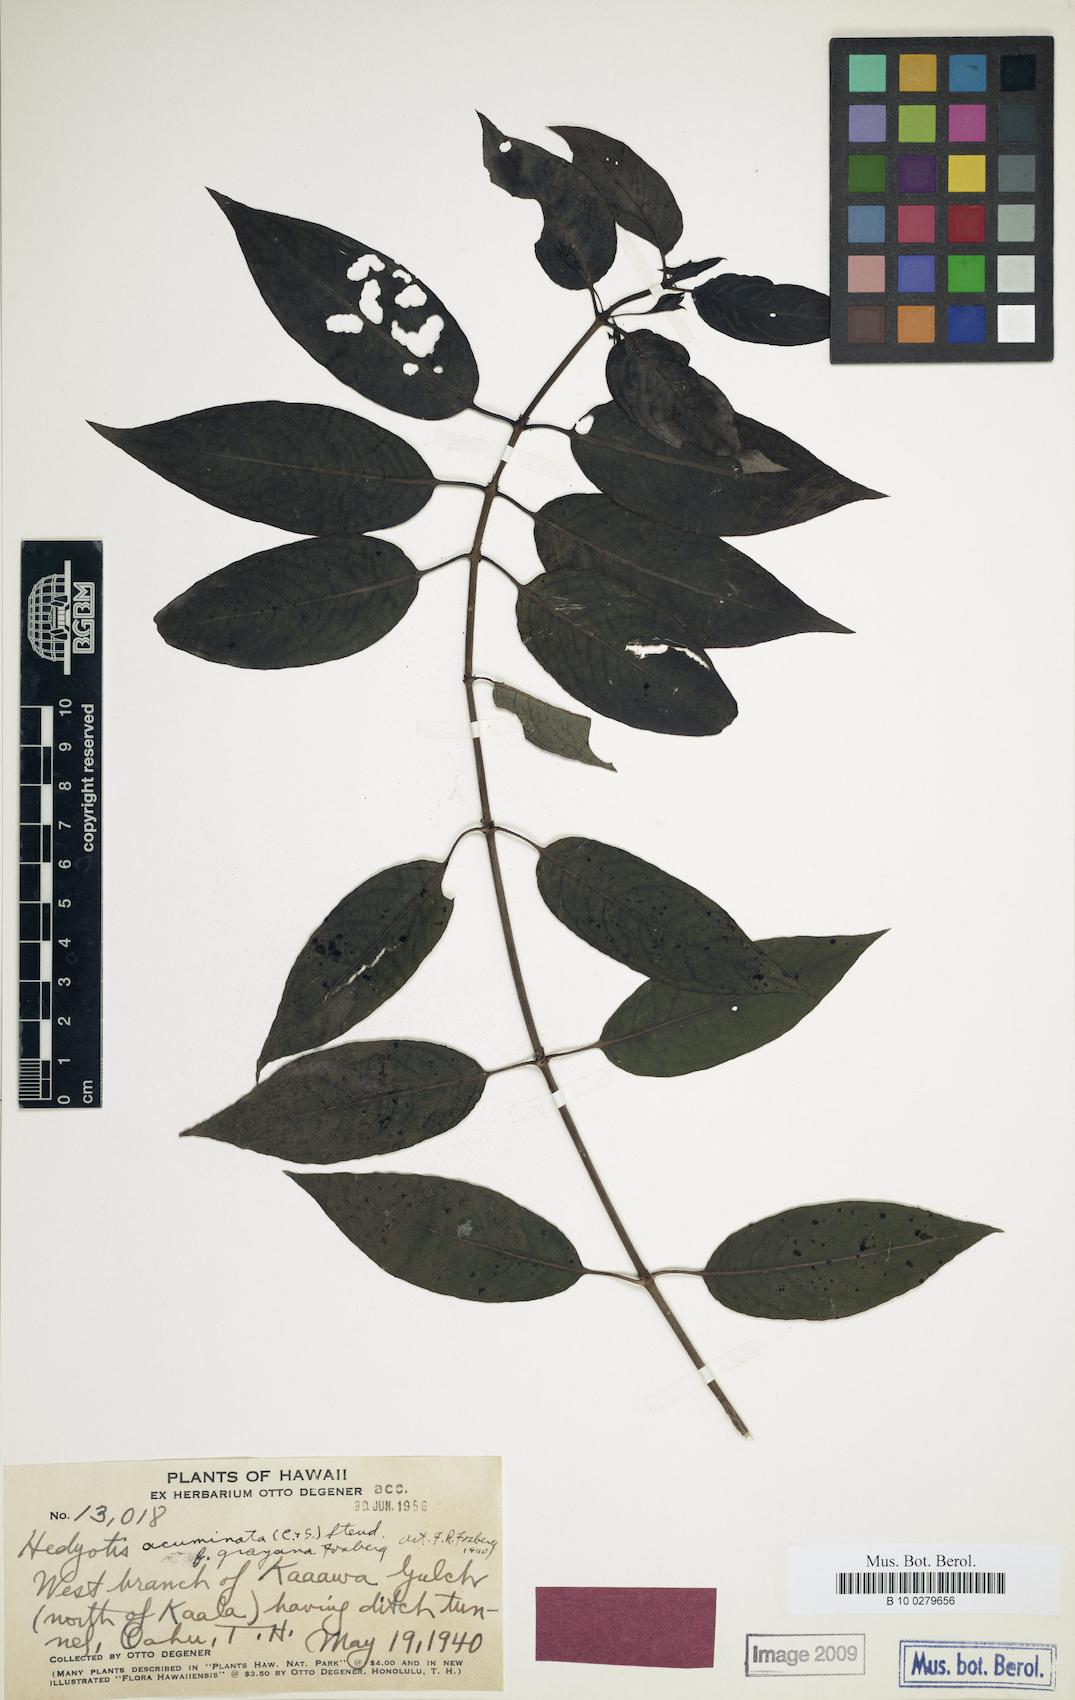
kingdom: Plantae
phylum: Tracheophyta
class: Magnoliopsida
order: Gentianales
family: Rubiaceae
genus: Kadua
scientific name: Kadua acuminata
